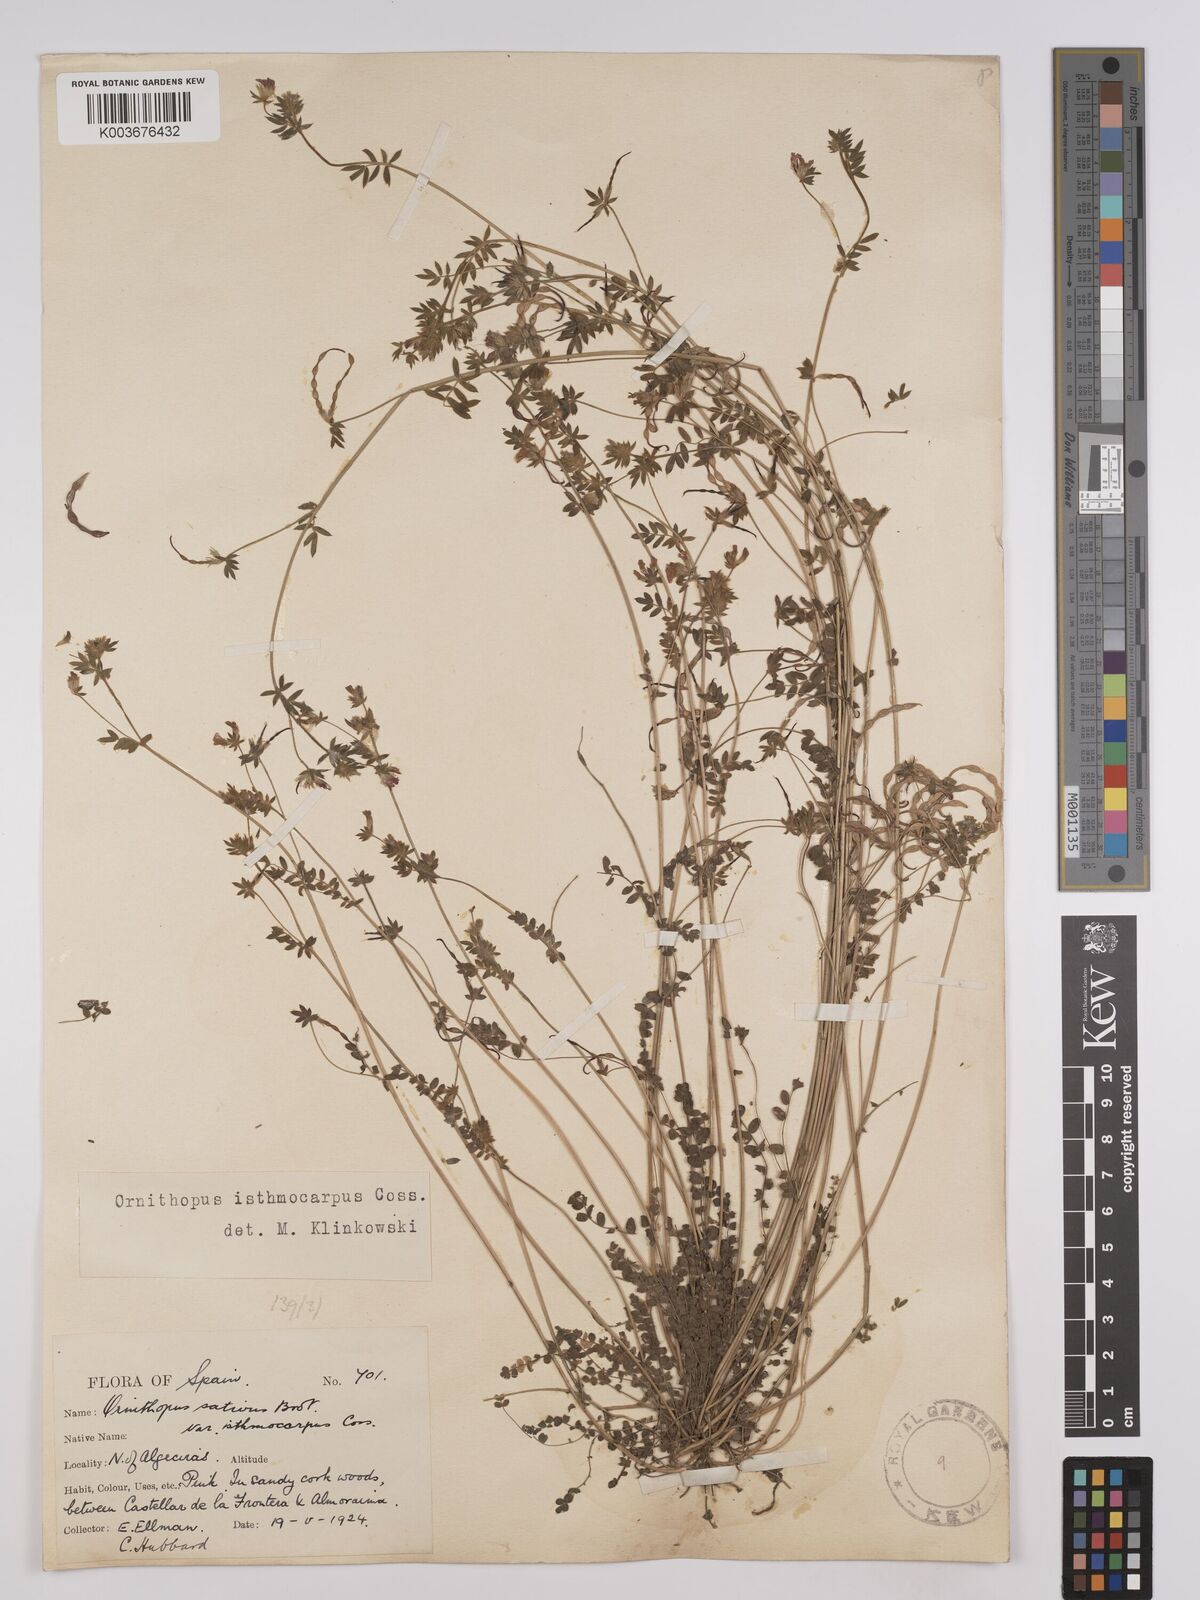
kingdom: Plantae
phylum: Tracheophyta
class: Magnoliopsida
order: Fabales
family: Fabaceae
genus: Ornithopus
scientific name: Ornithopus sativus
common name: Serradella
